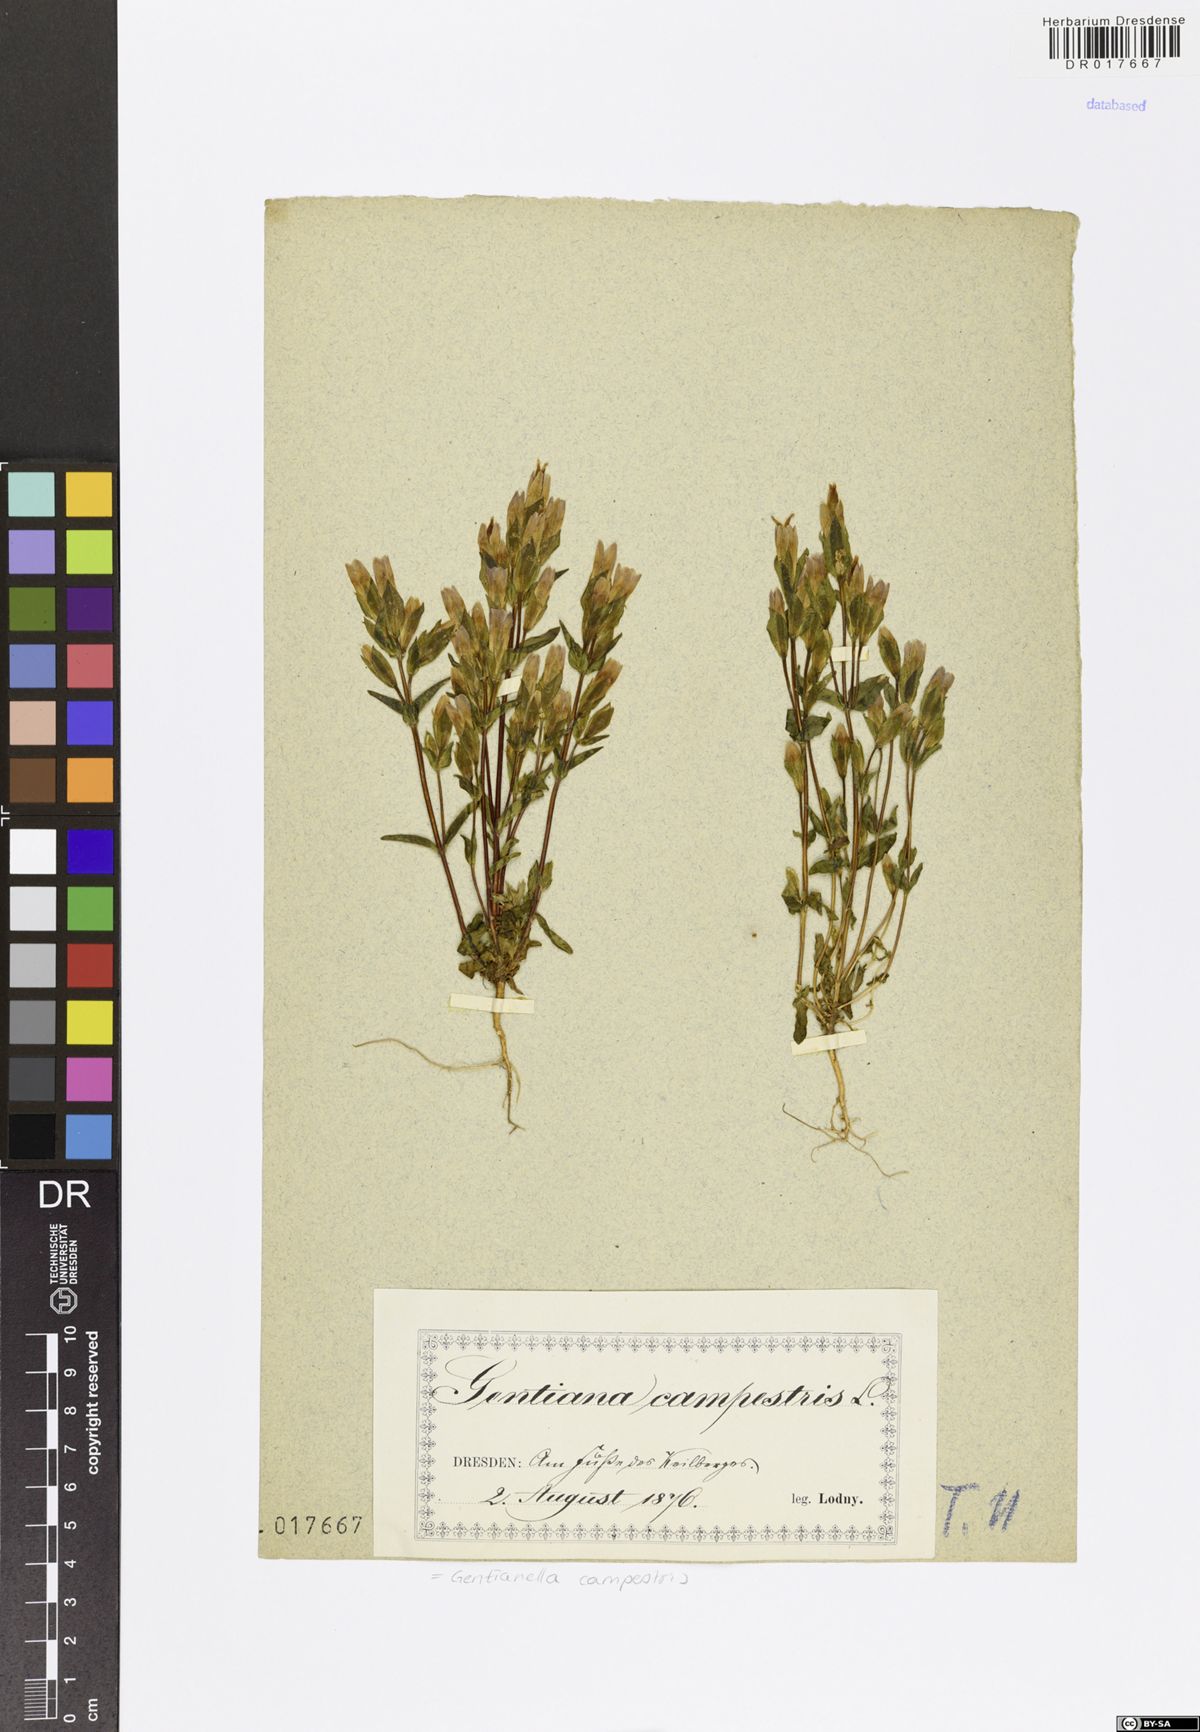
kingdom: Plantae
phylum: Tracheophyta
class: Magnoliopsida
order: Gentianales
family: Gentianaceae
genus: Gentianella
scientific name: Gentianella campestris
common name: Field gentian
